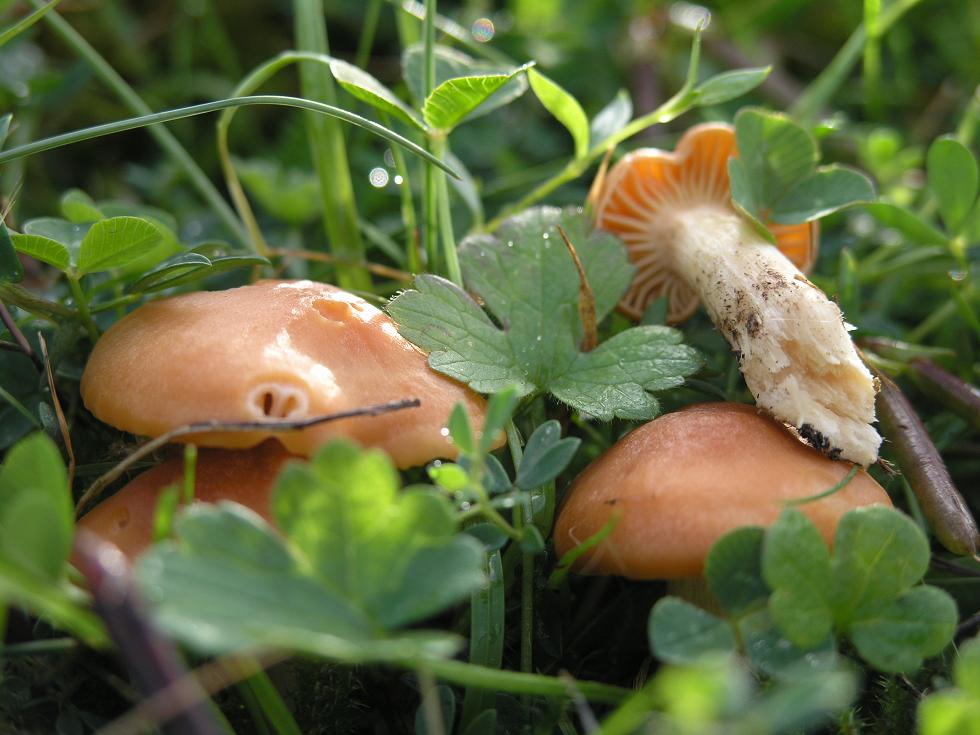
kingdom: Fungi
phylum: Basidiomycota
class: Agaricomycetes
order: Agaricales
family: Hygrophoraceae
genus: Cuphophyllus
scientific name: Cuphophyllus pratensis
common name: eng-vokshat
